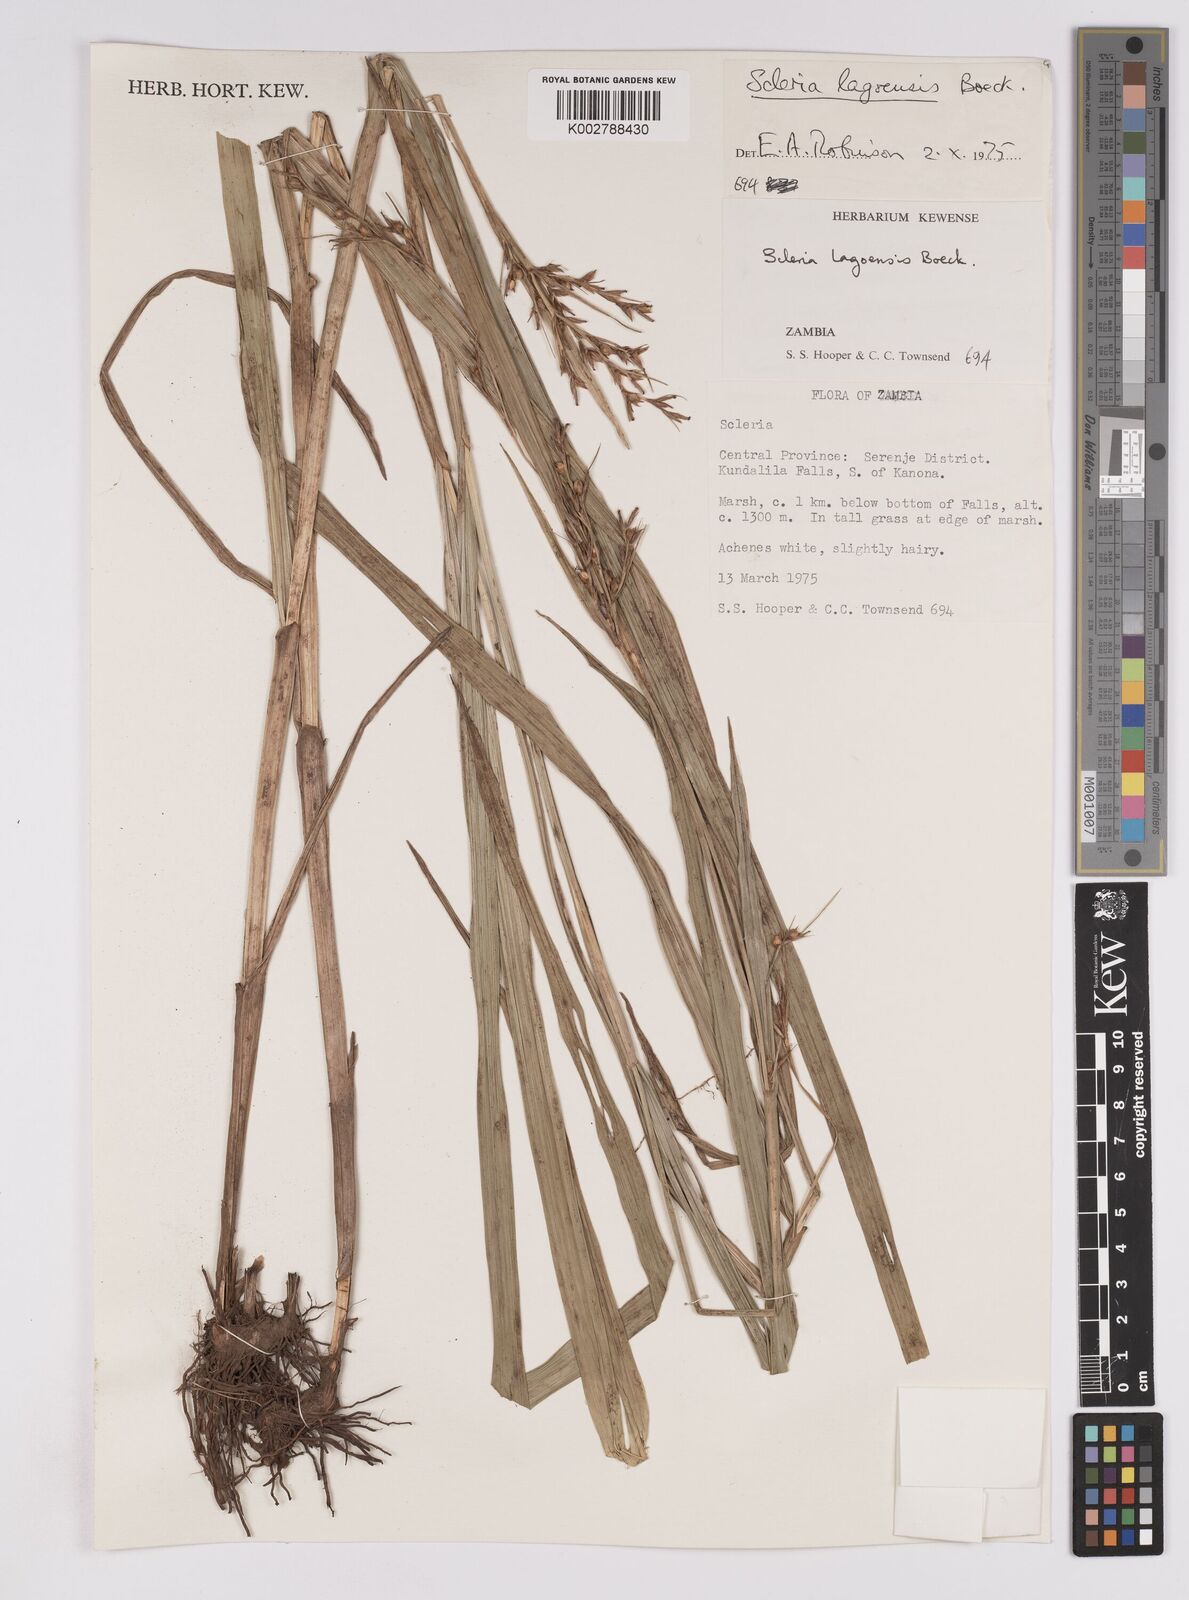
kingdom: Plantae
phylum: Tracheophyta
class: Liliopsida
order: Poales
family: Cyperaceae
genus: Scleria
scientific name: Scleria lagoensis
